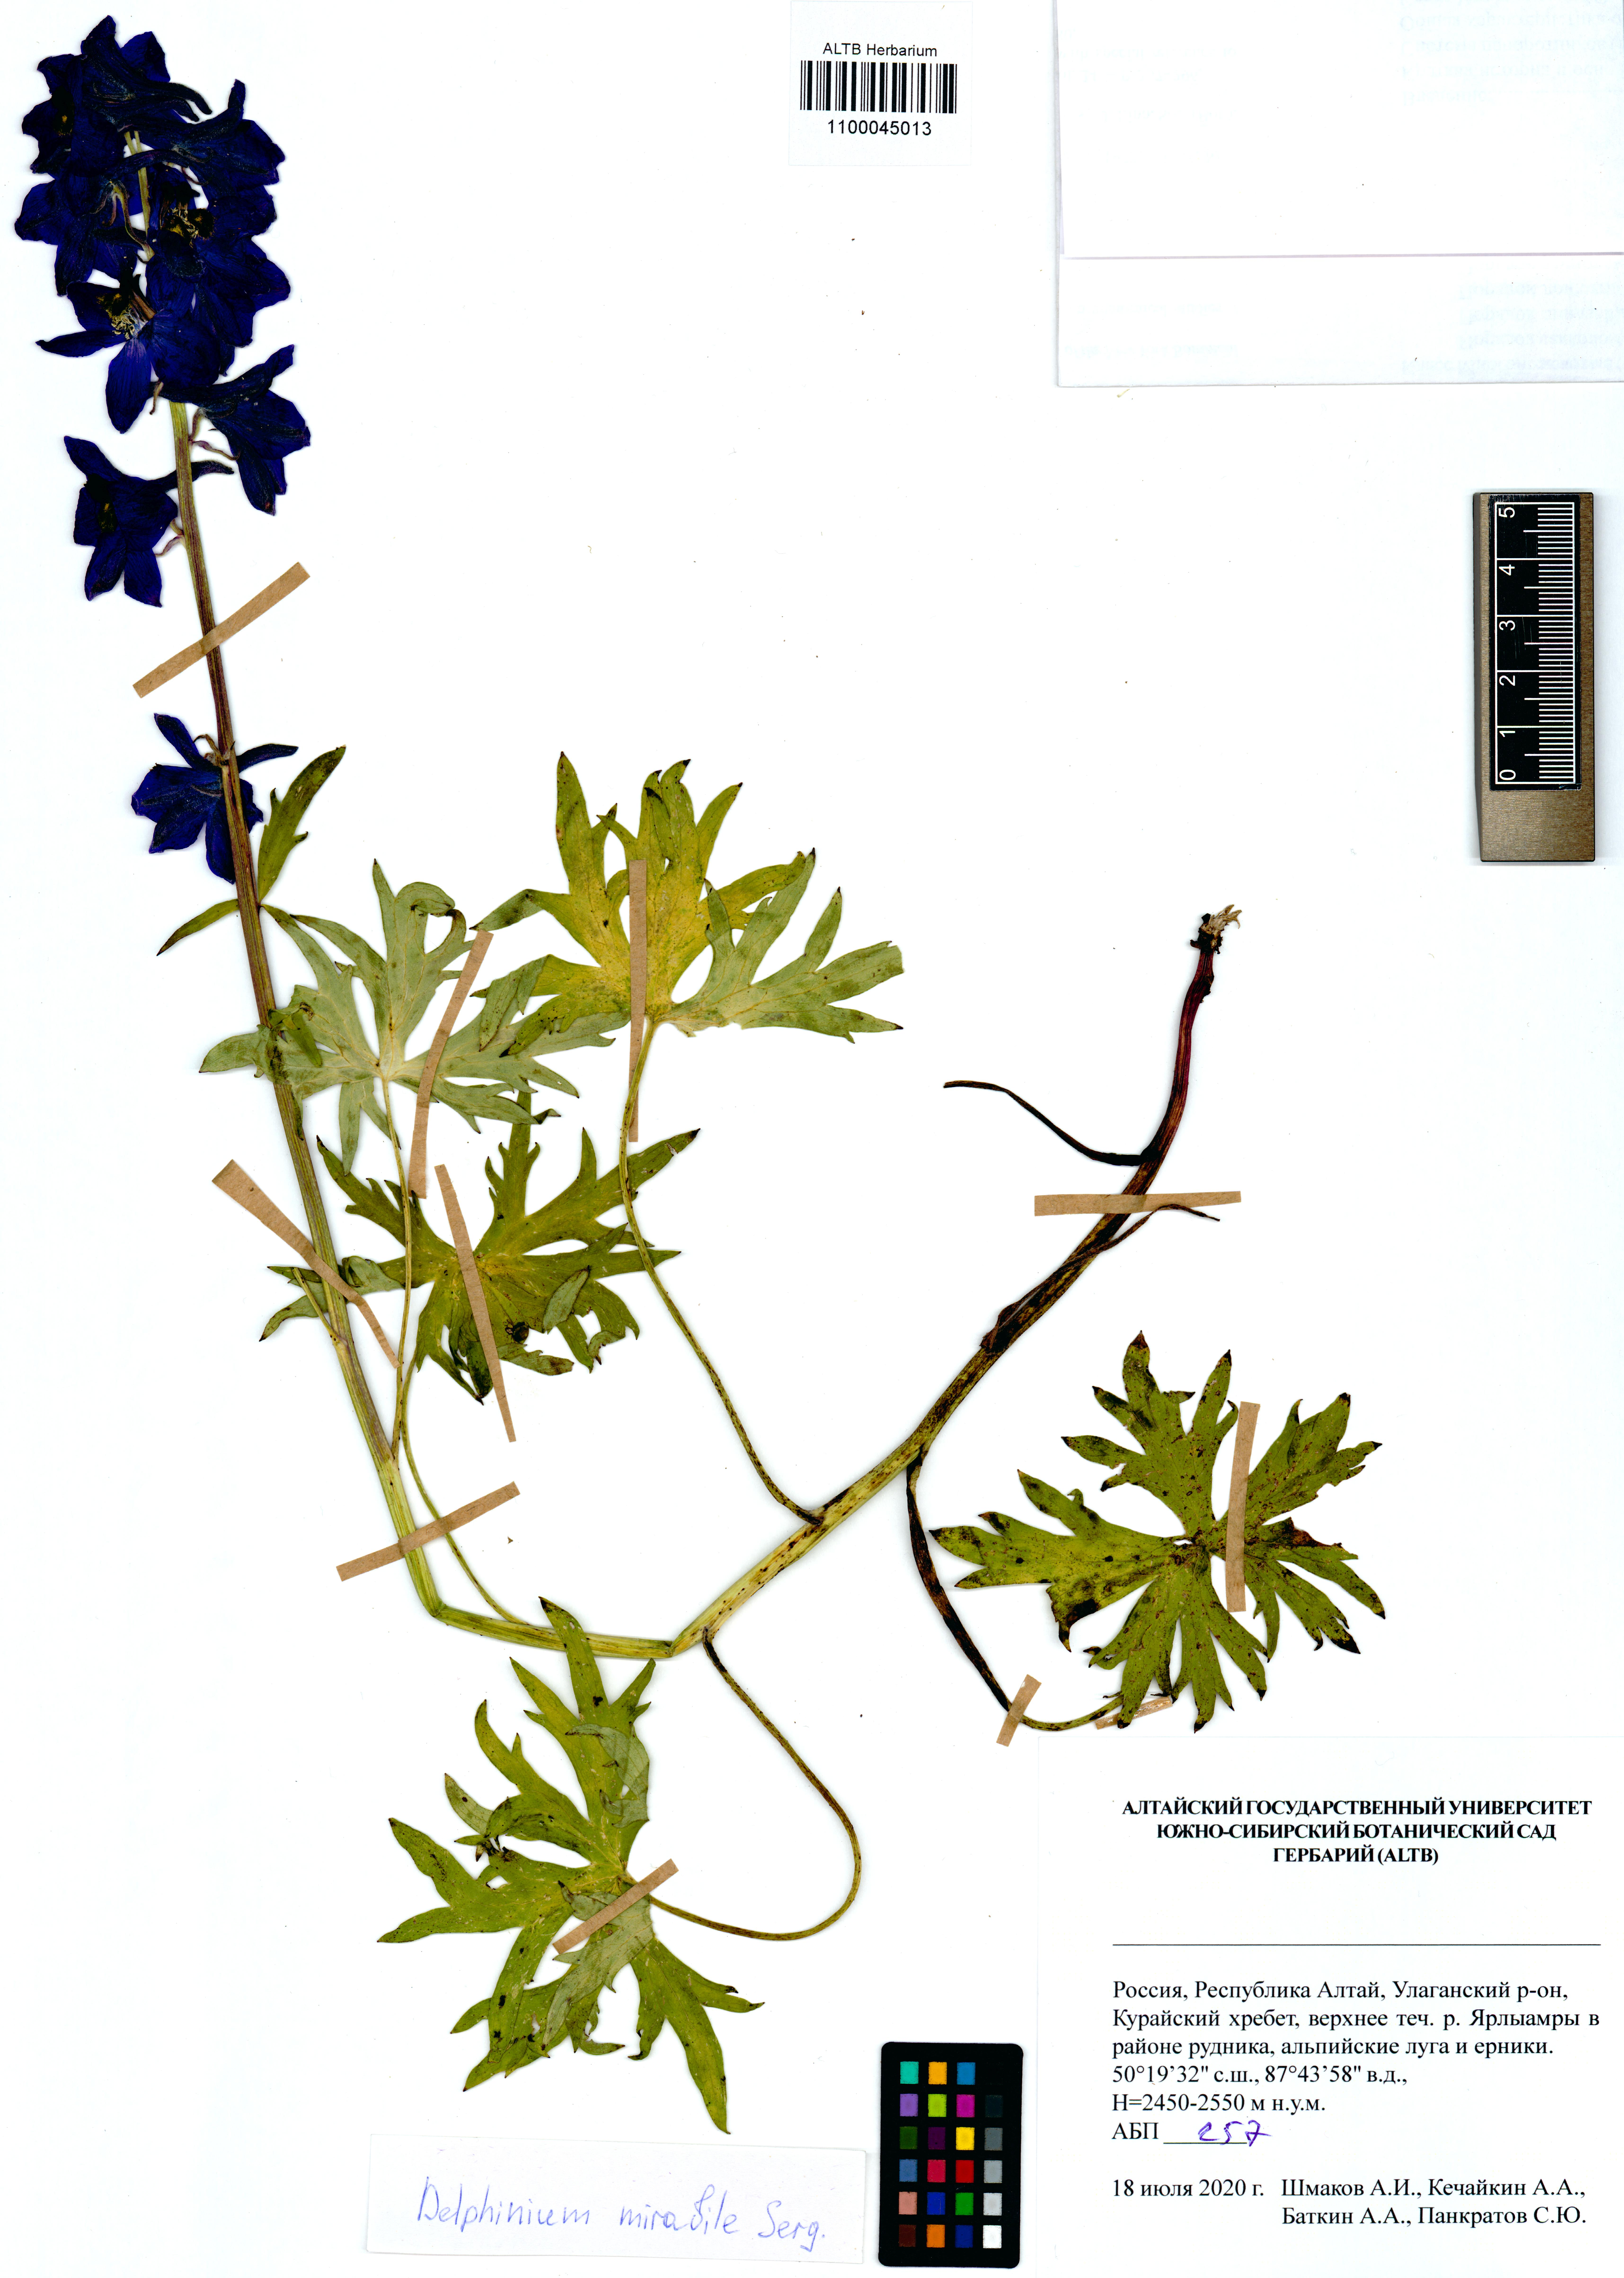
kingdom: Plantae
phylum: Tracheophyta
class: Magnoliopsida
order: Ranunculales
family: Ranunculaceae
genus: Delphinium
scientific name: Delphinium mirabile
